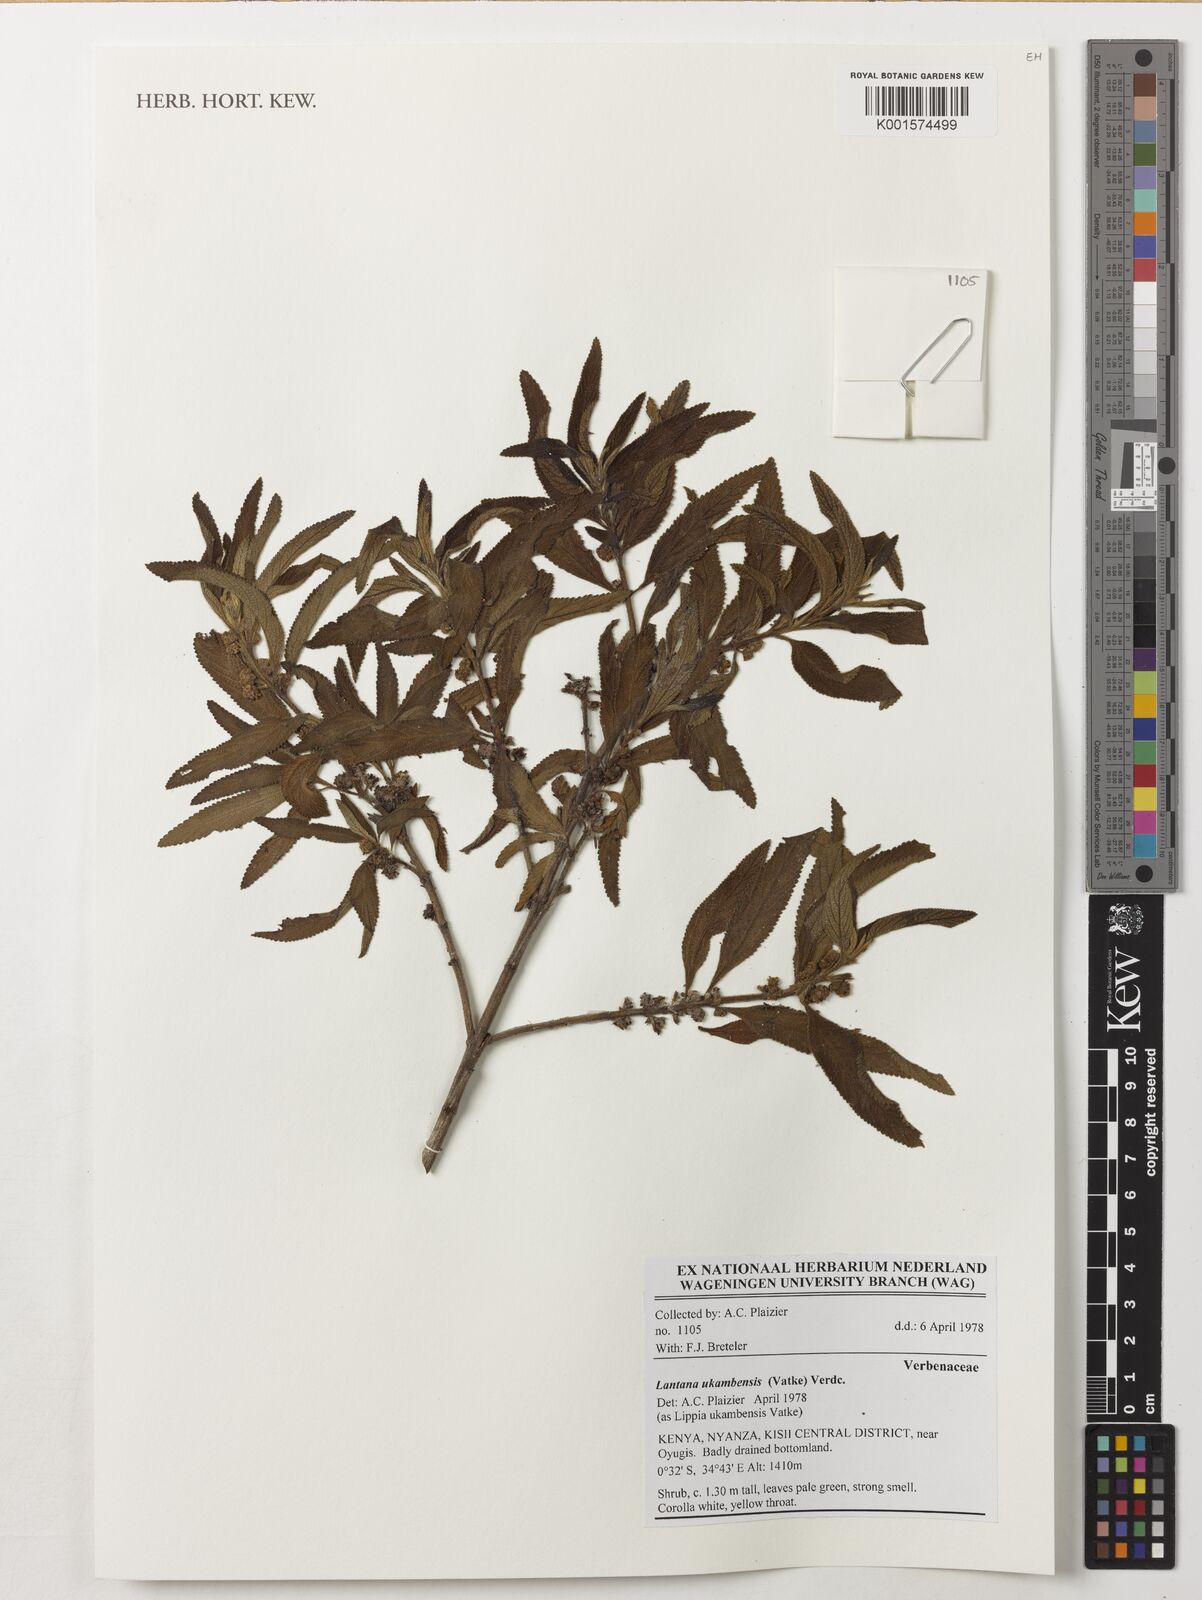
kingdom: Plantae
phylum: Tracheophyta
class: Magnoliopsida
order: Lamiales
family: Verbenaceae
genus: Lantana
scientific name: Lantana ukambensis
